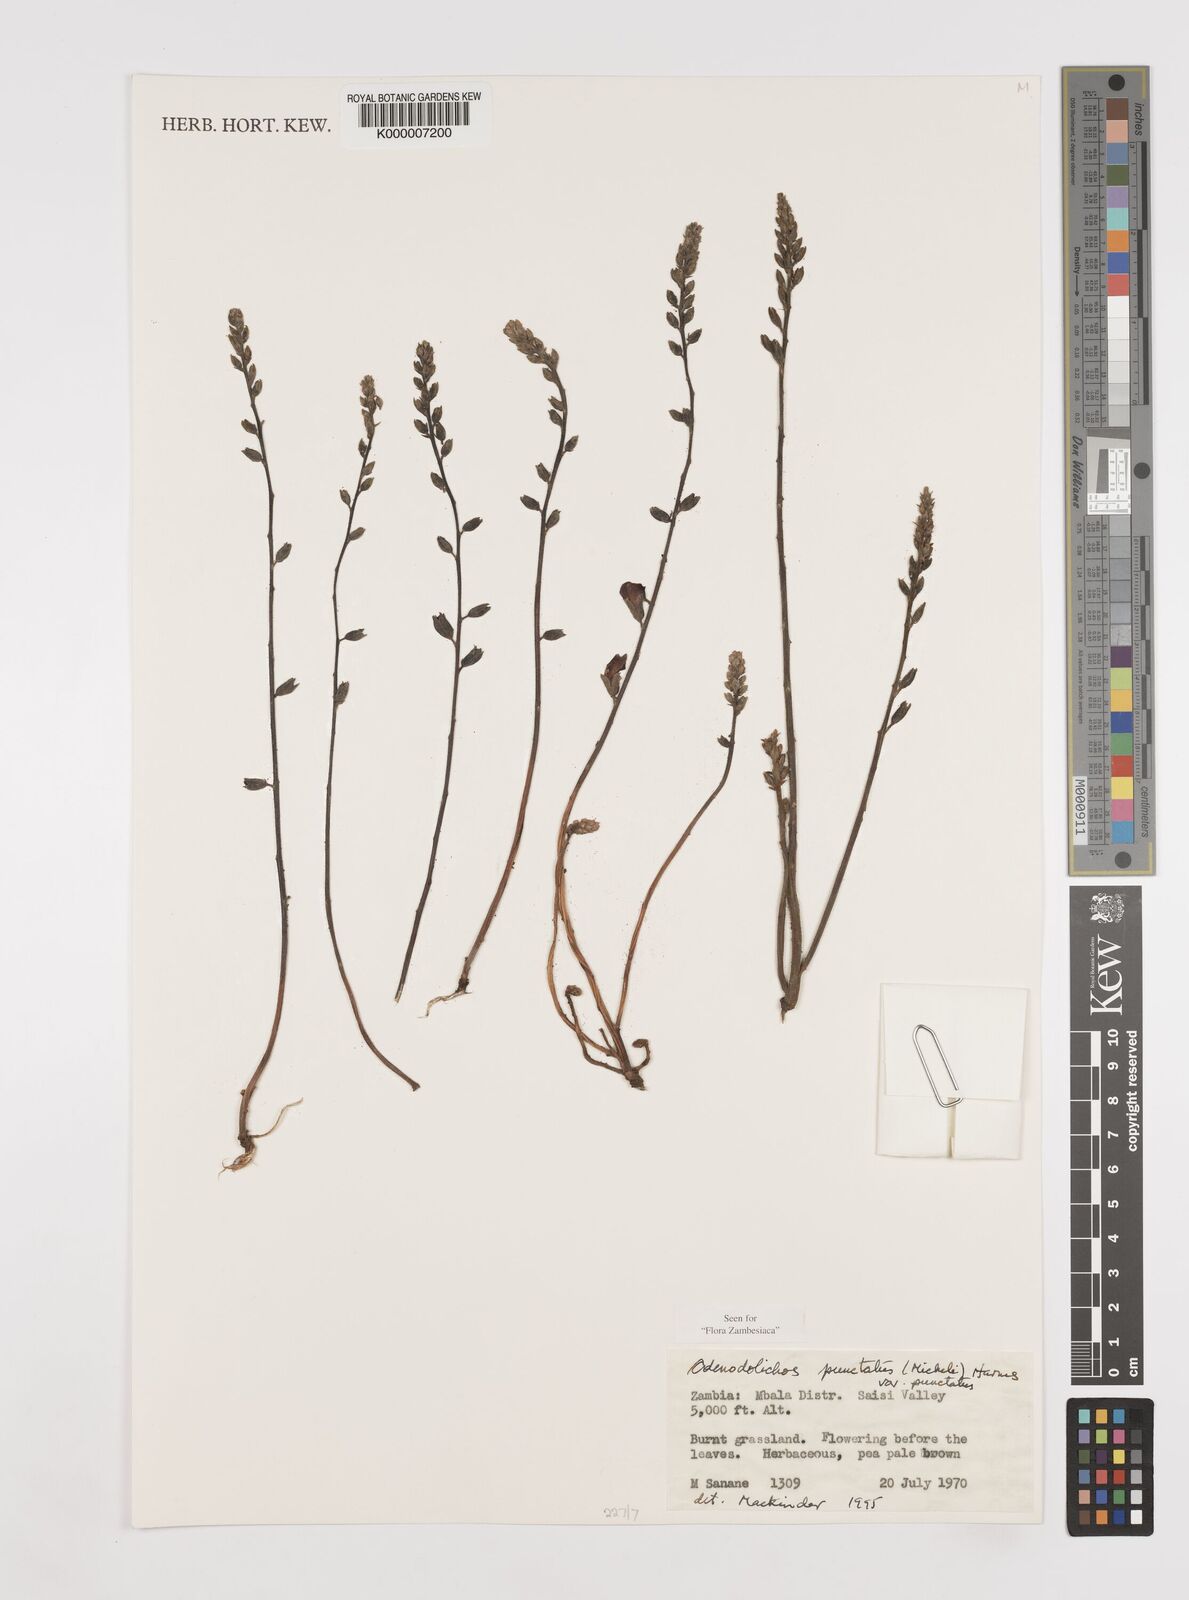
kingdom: Plantae
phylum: Tracheophyta
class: Magnoliopsida
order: Fabales
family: Fabaceae
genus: Adenodolichos
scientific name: Adenodolichos punctatus
